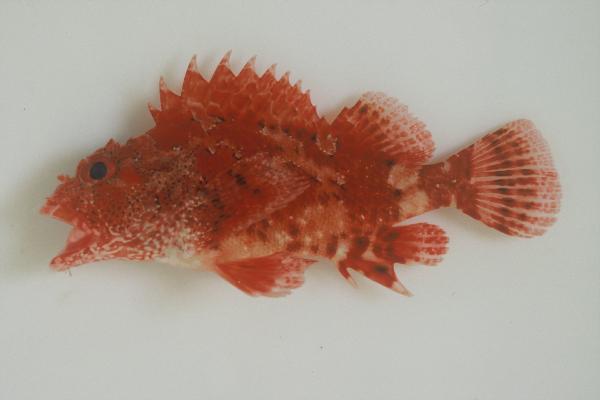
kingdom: Animalia
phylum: Chordata
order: Scorpaeniformes
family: Scorpaenidae
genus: Scorpaena
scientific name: Scorpaena maderensis
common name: Madeira rockfish
